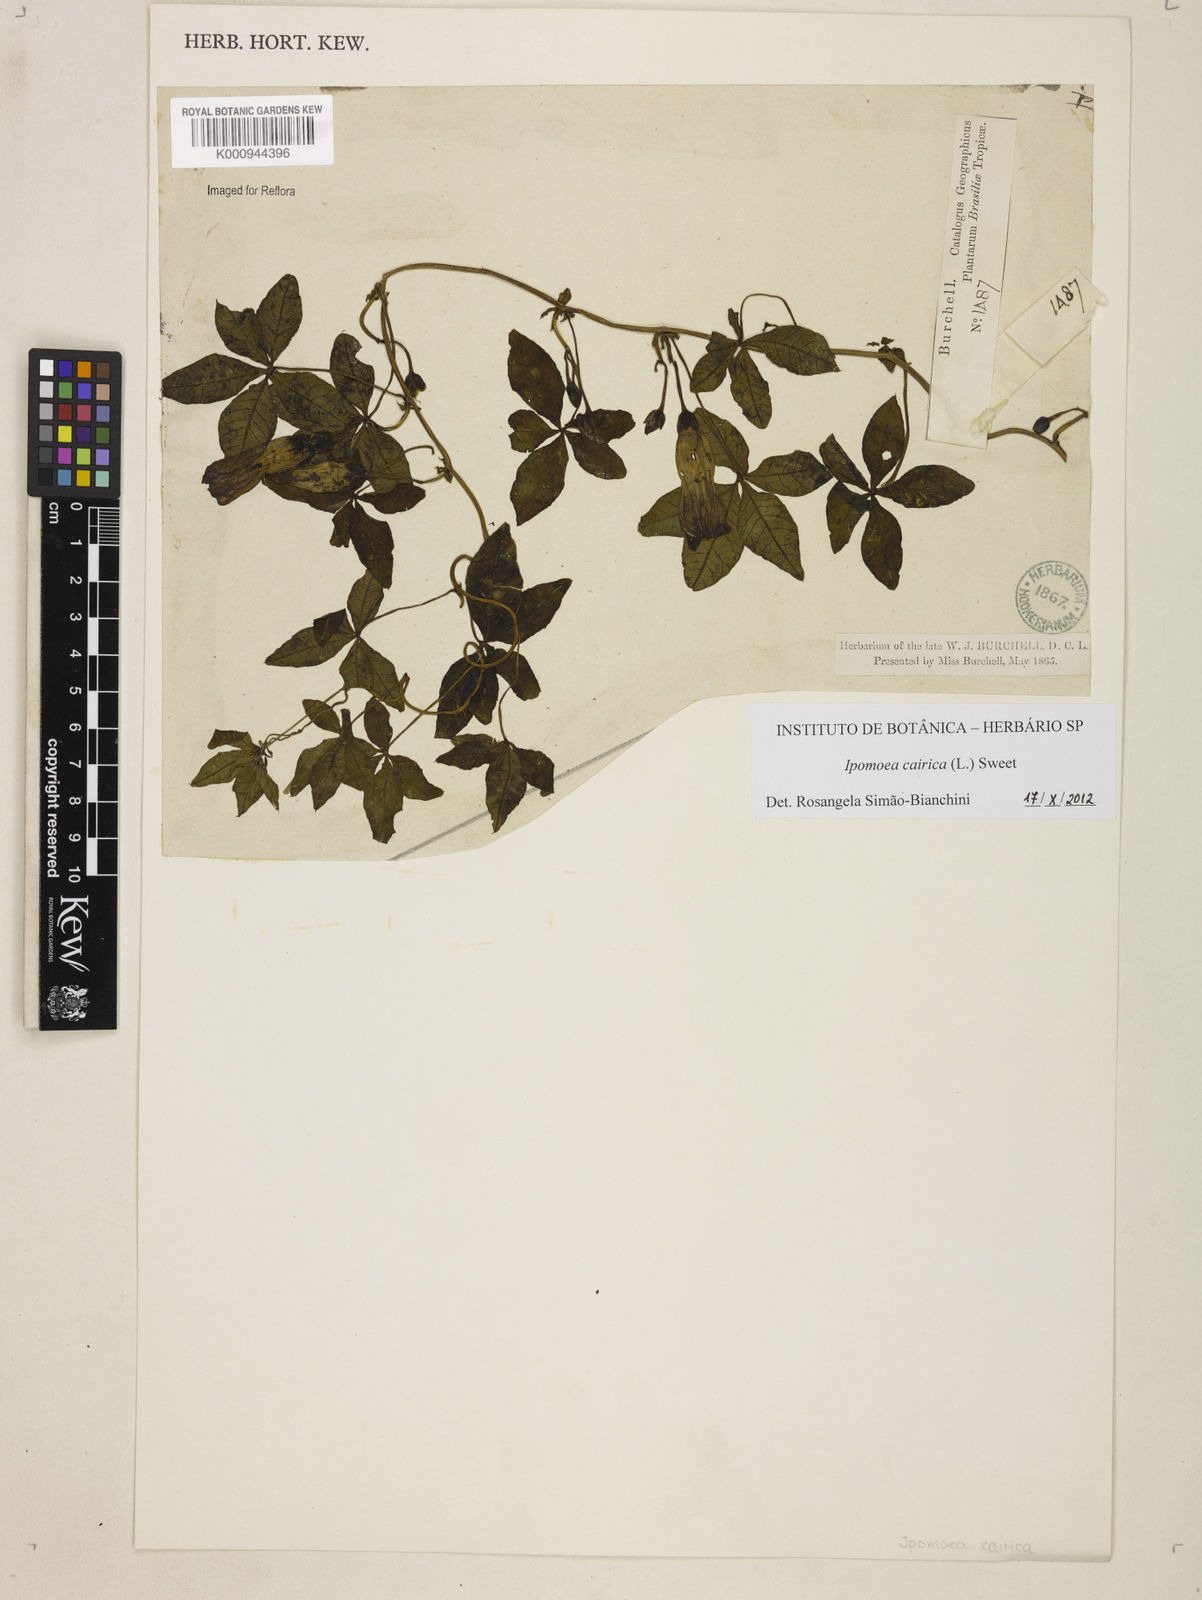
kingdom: Plantae
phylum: Tracheophyta
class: Magnoliopsida
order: Solanales
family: Convolvulaceae
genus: Ipomoea
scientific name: Ipomoea cairica
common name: Mile a minute vine
